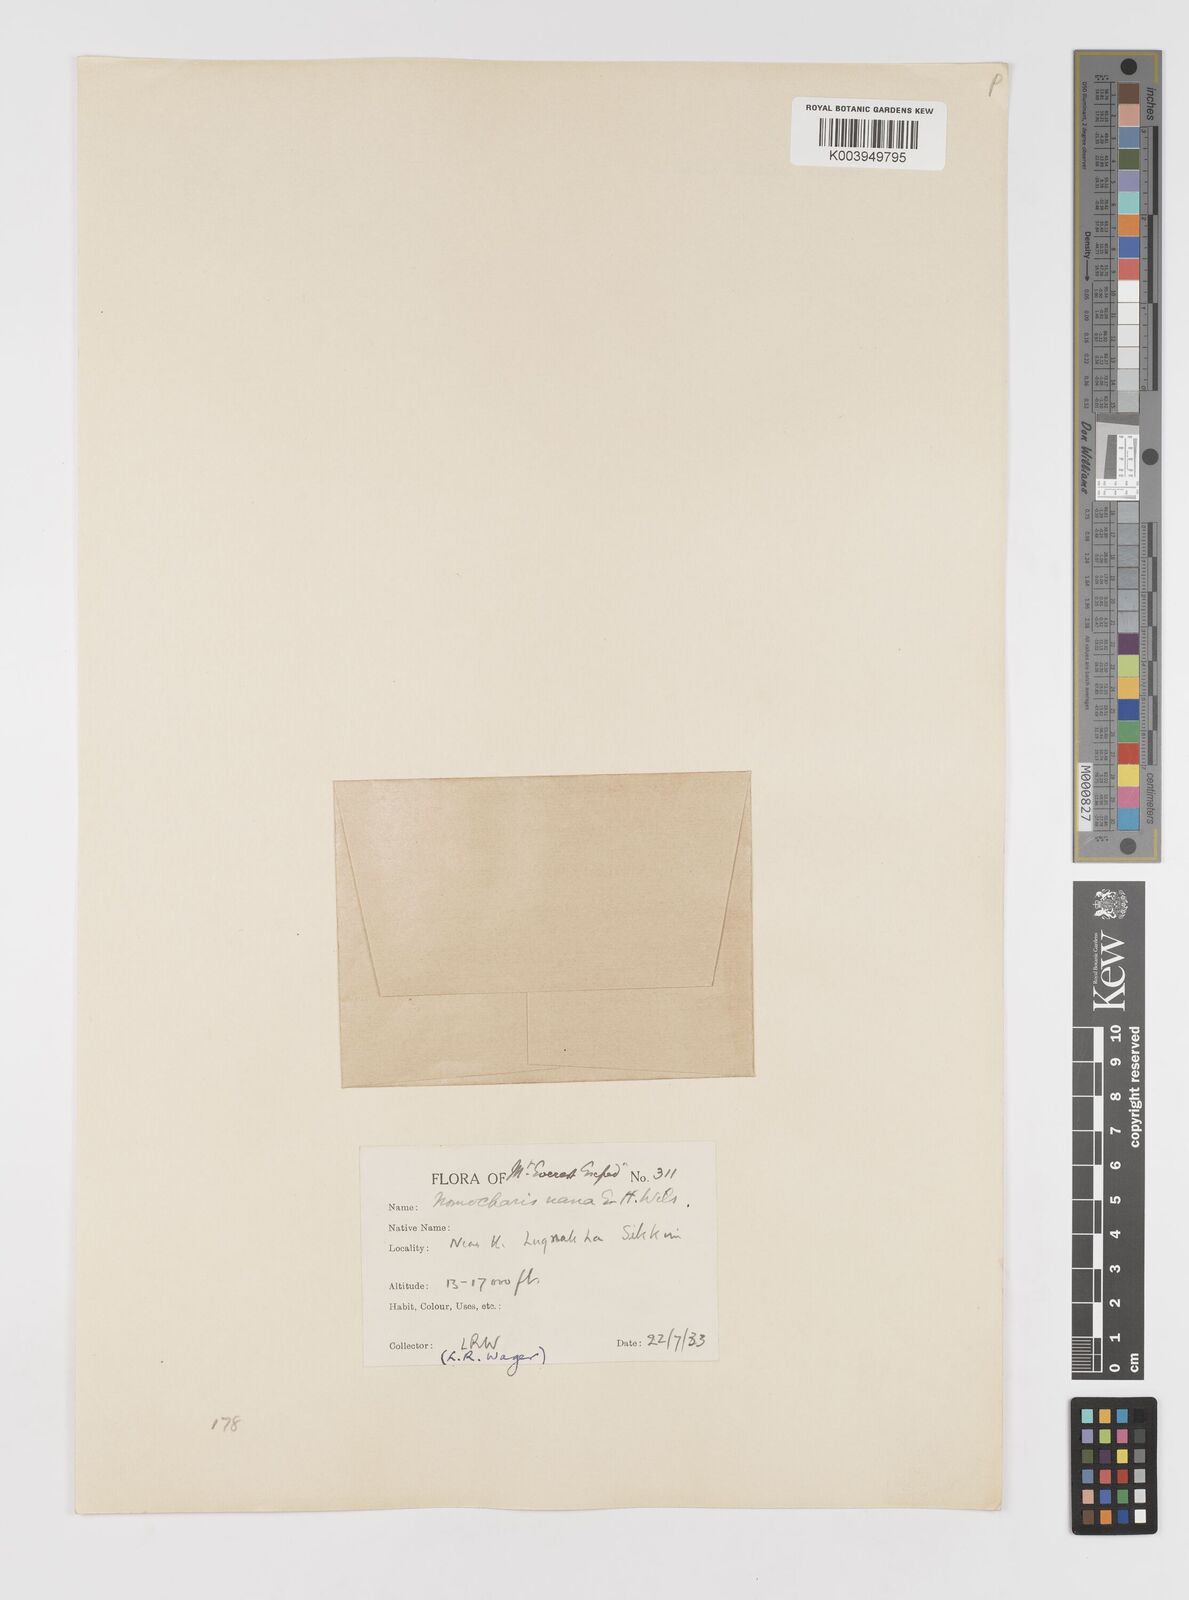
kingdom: Plantae
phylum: Tracheophyta
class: Liliopsida
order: Liliales
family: Liliaceae
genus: Lilium
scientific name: Lilium nanum
